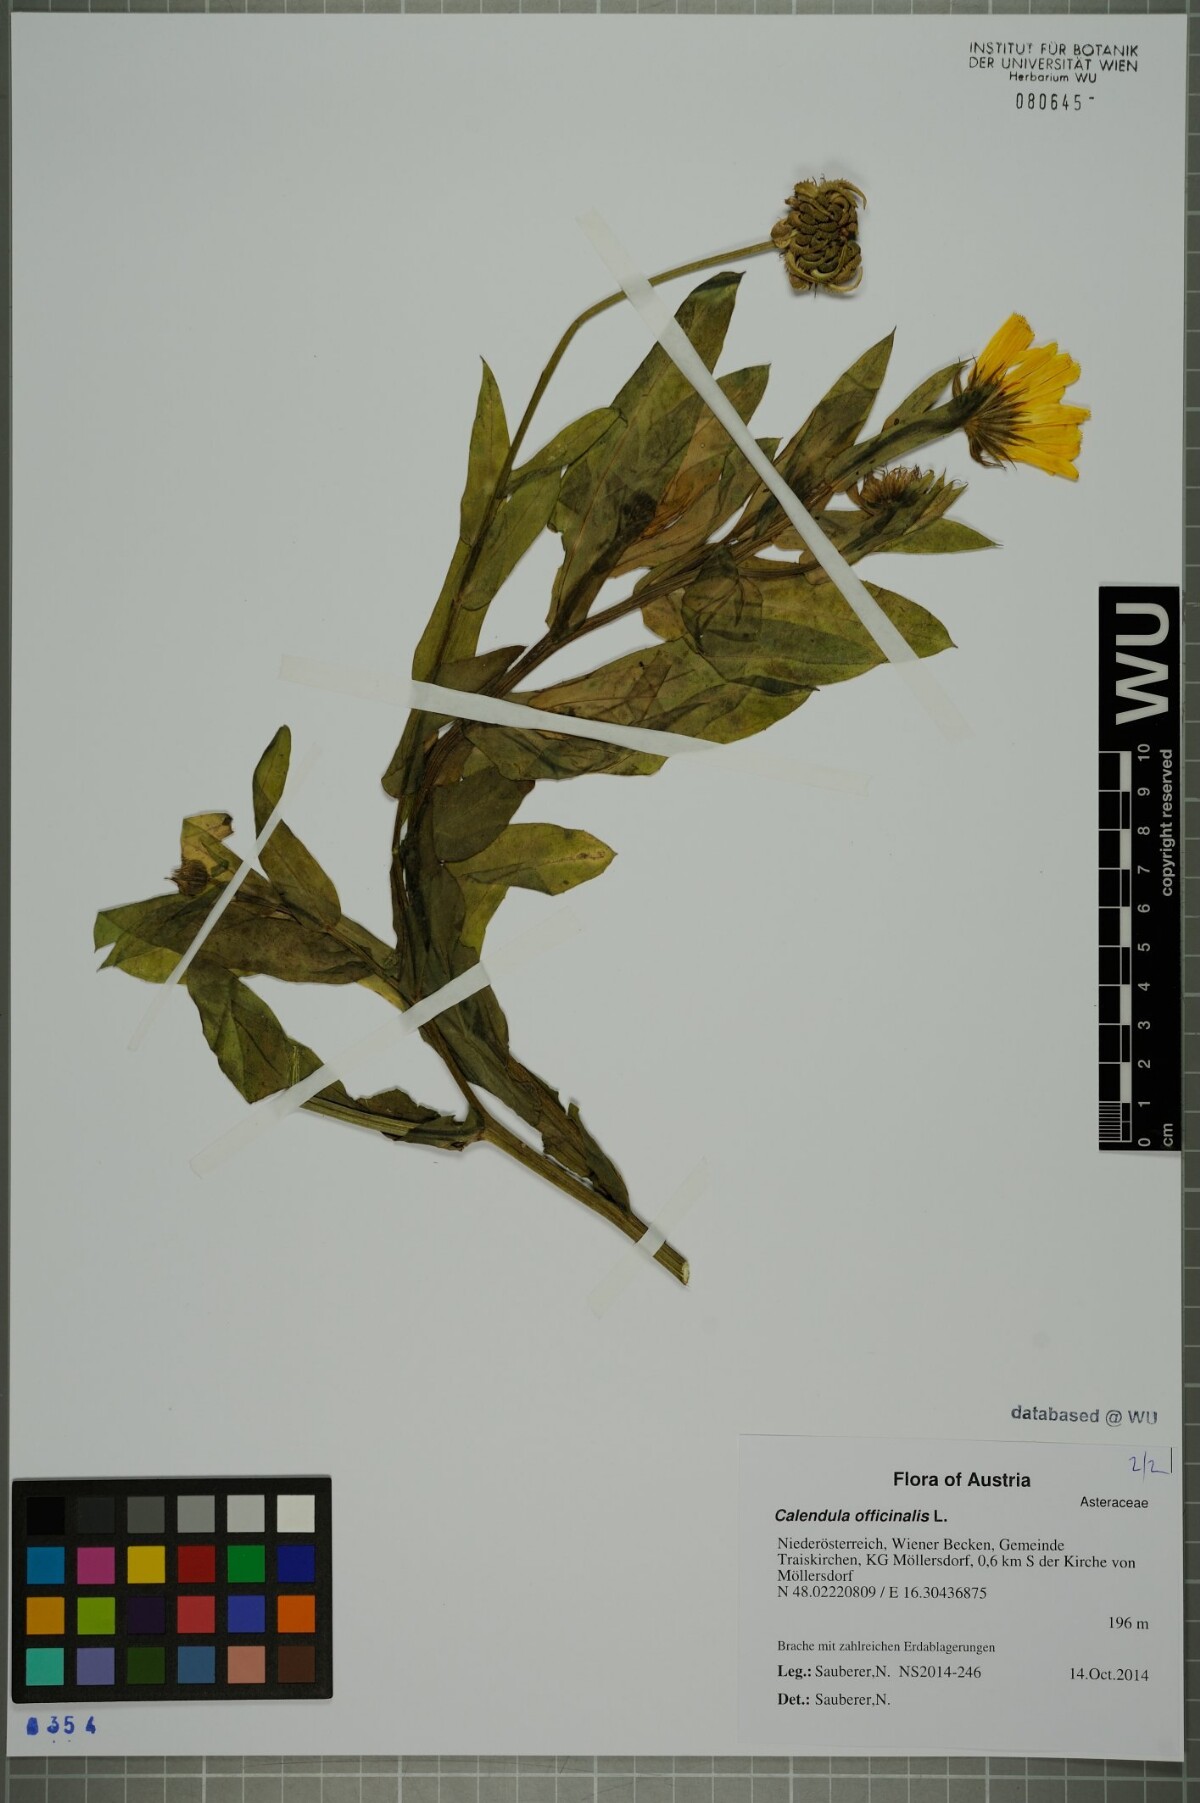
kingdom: Plantae
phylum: Tracheophyta
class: Magnoliopsida
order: Asterales
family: Asteraceae
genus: Calendula
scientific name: Calendula officinalis
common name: Pot marigold
